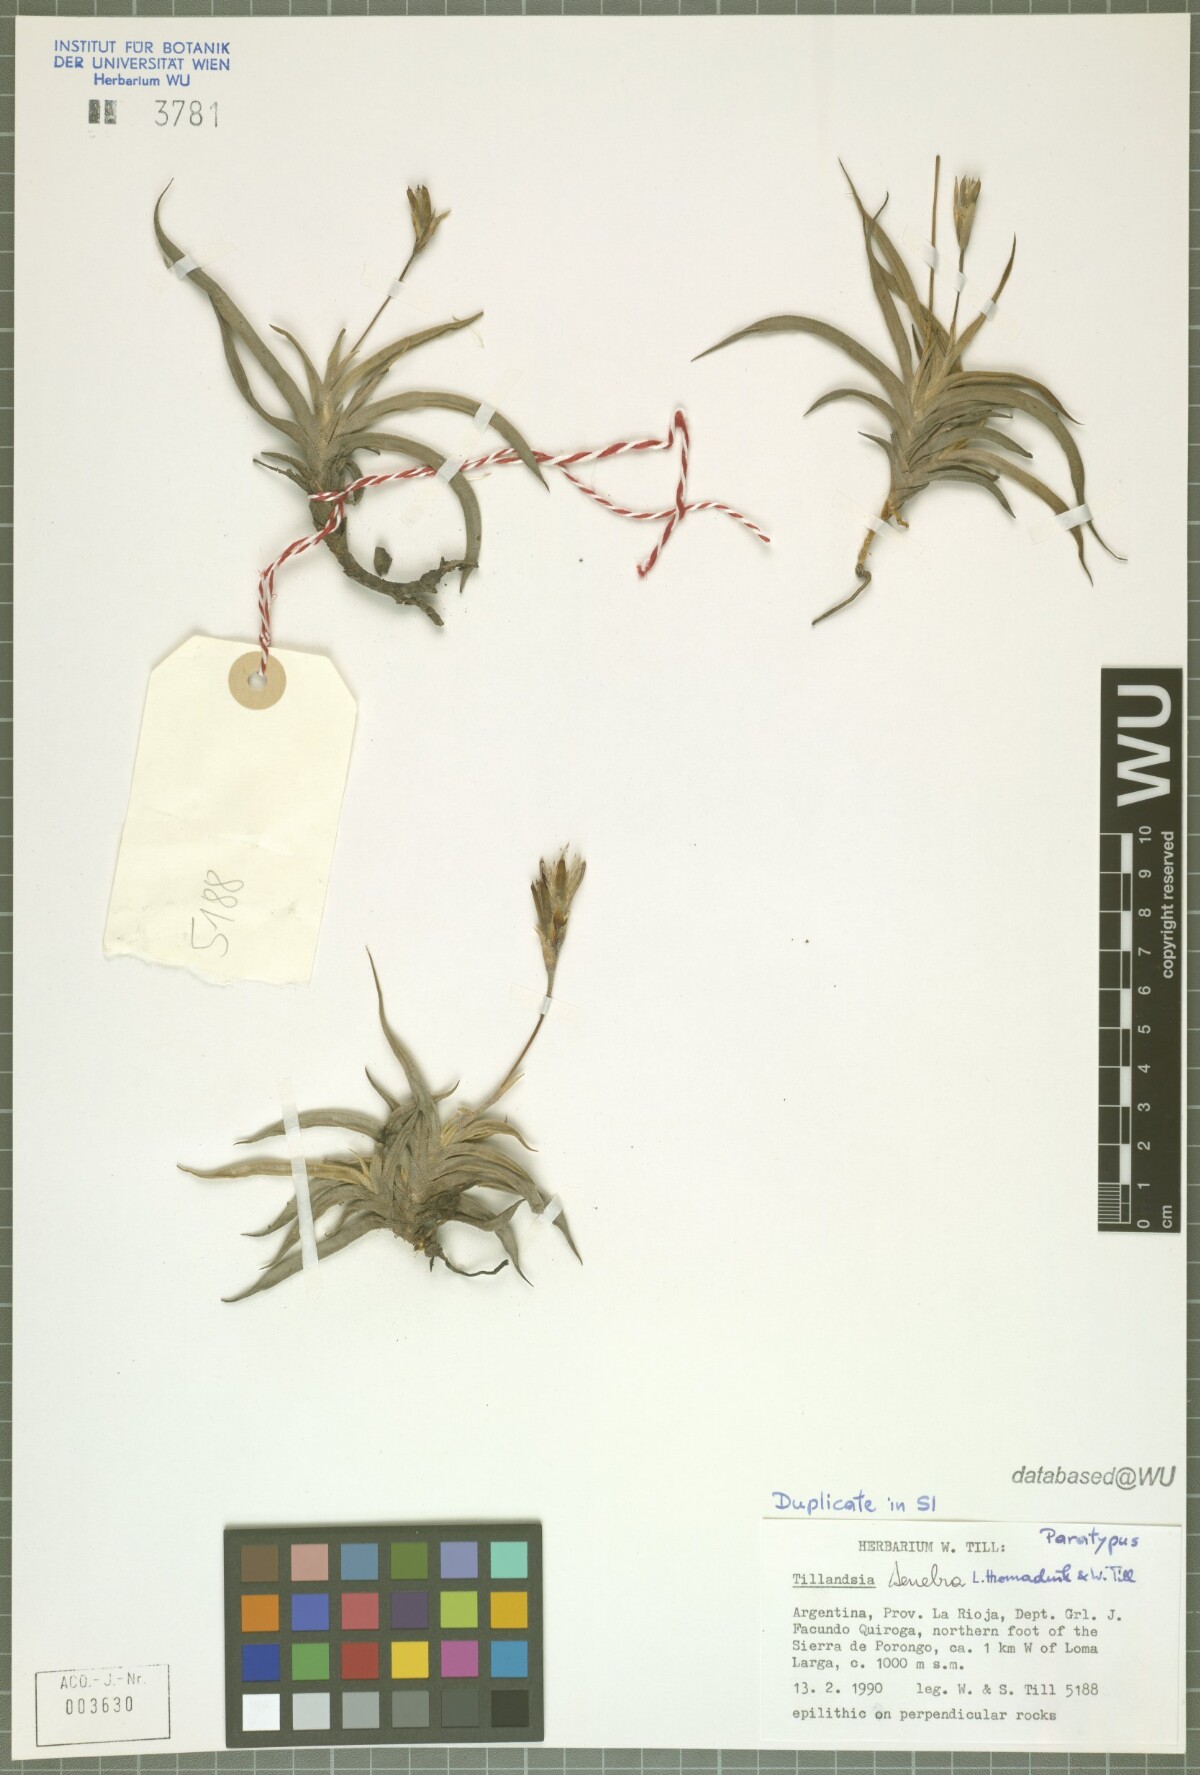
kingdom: Plantae
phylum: Tracheophyta
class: Liliopsida
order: Poales
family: Bromeliaceae
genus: Tillandsia
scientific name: Tillandsia tenebra
